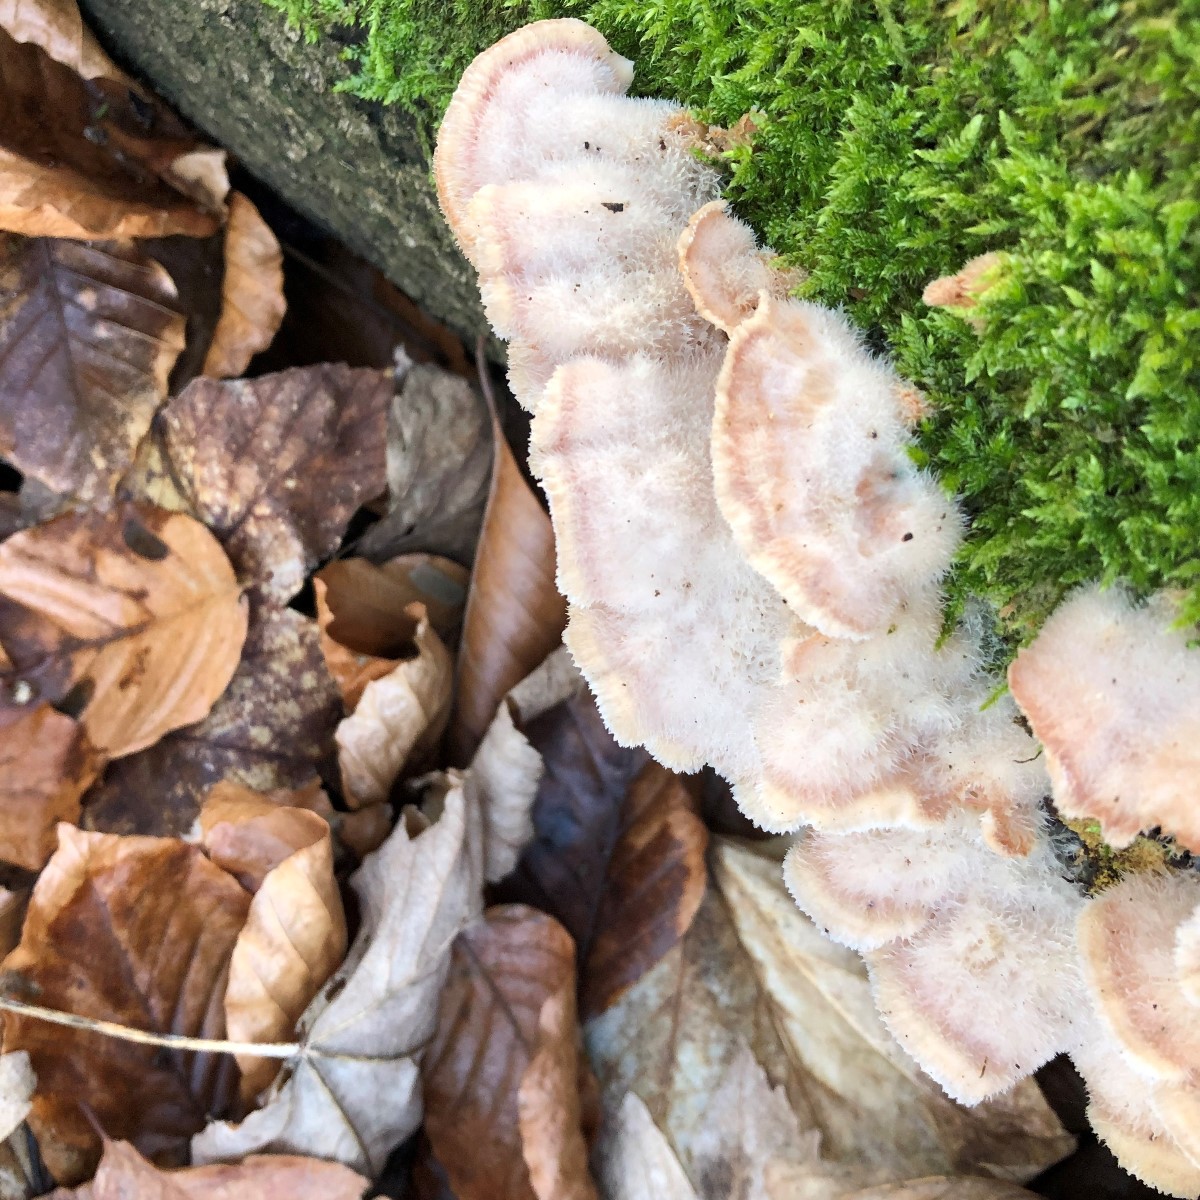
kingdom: Fungi
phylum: Basidiomycota
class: Agaricomycetes
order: Polyporales
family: Meruliaceae
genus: Phlebia
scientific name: Phlebia tremellosa
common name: bævrende åresvamp
